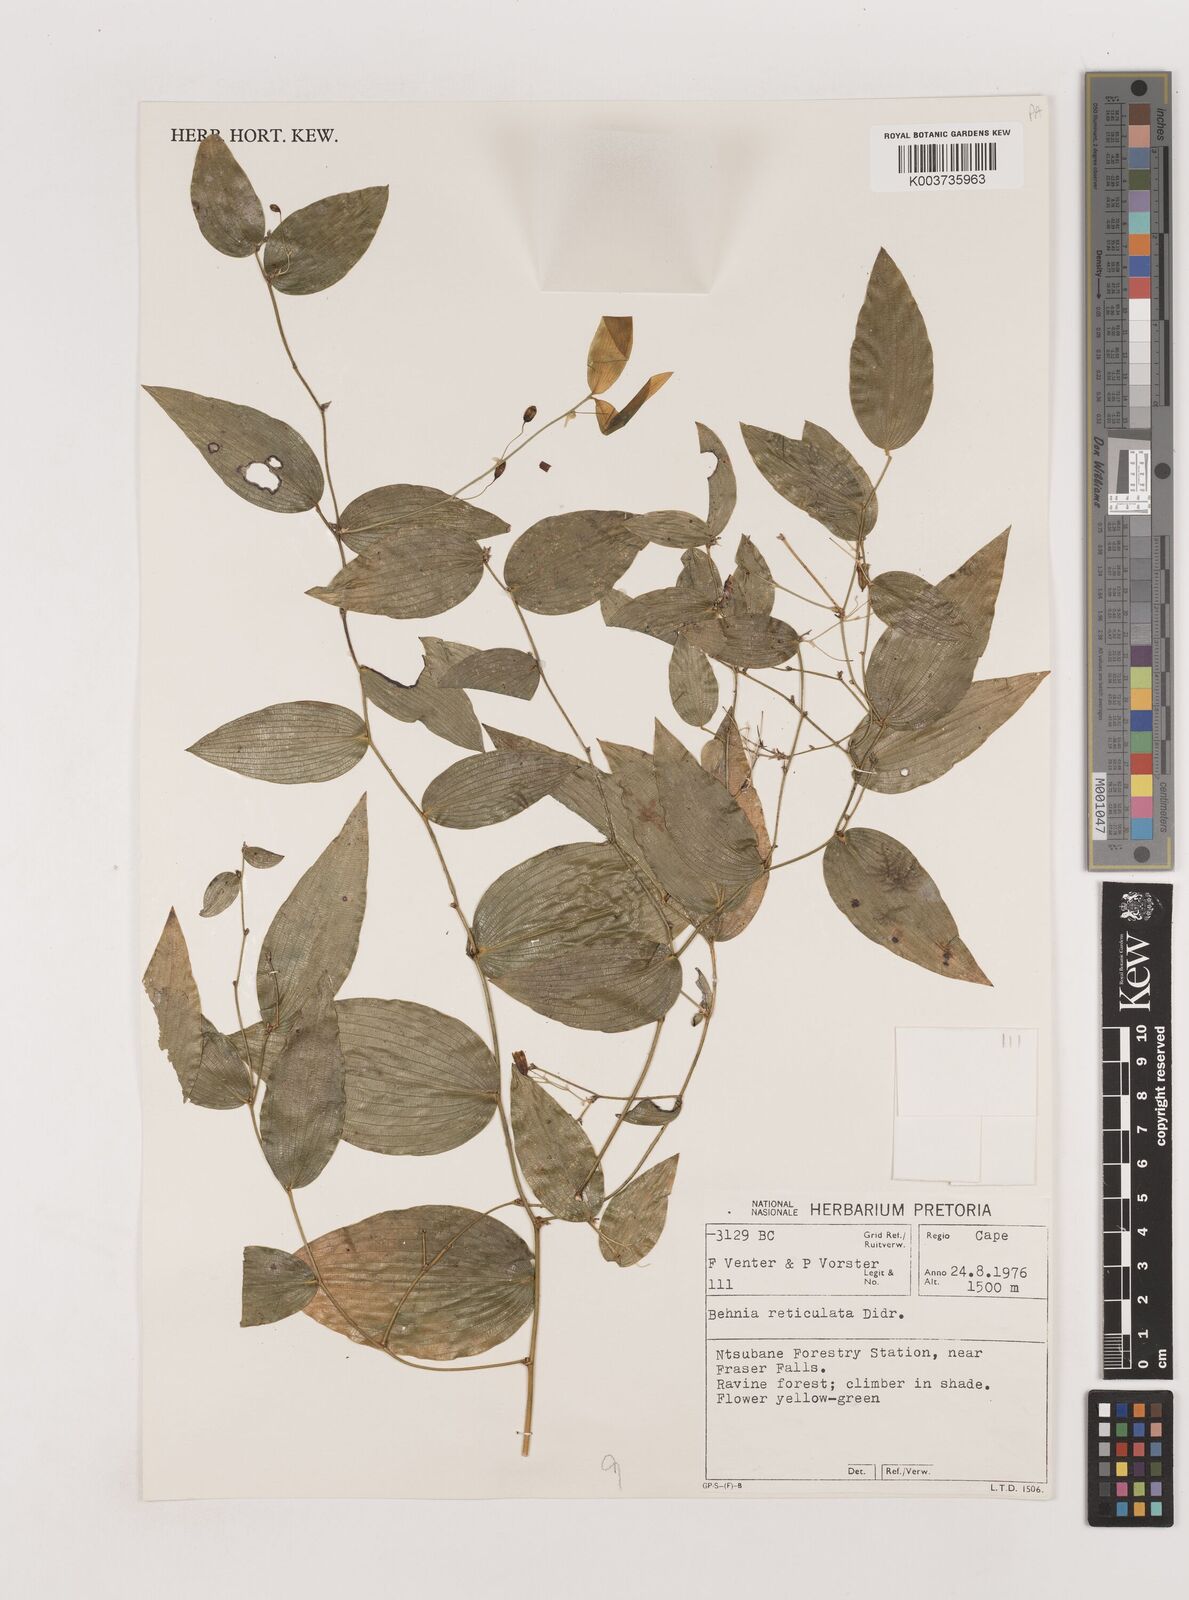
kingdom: Plantae
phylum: Tracheophyta
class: Liliopsida
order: Asparagales
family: Asparagaceae
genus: Behnia
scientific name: Behnia reticulata
